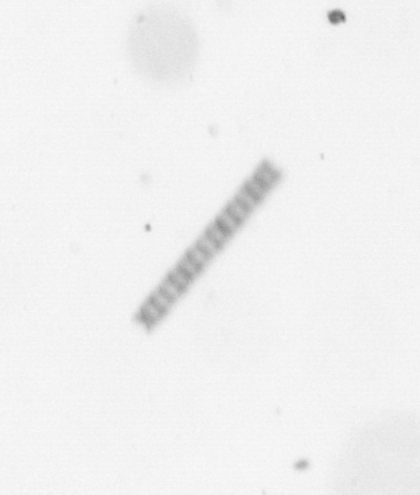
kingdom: Chromista
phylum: Ochrophyta
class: Bacillariophyceae
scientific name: Bacillariophyceae
